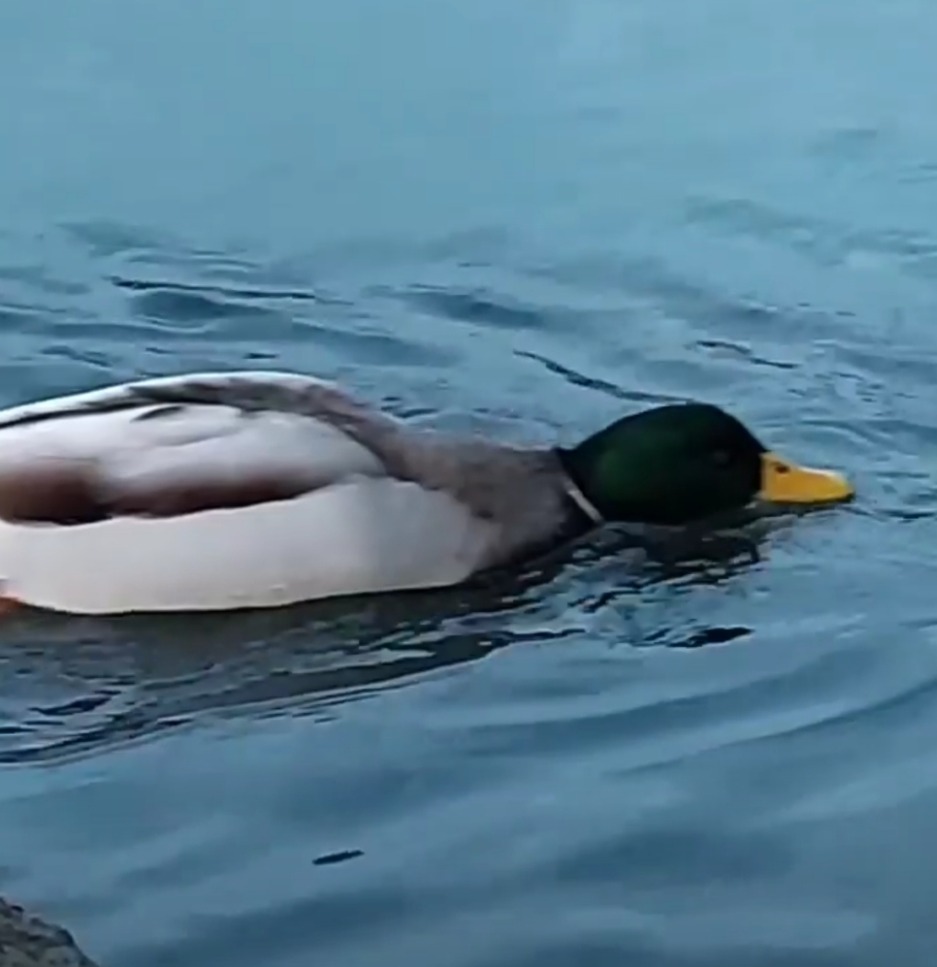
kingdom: Animalia
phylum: Chordata
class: Aves
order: Anseriformes
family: Anatidae
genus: Anas
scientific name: Anas platyrhynchos
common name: Gråand
